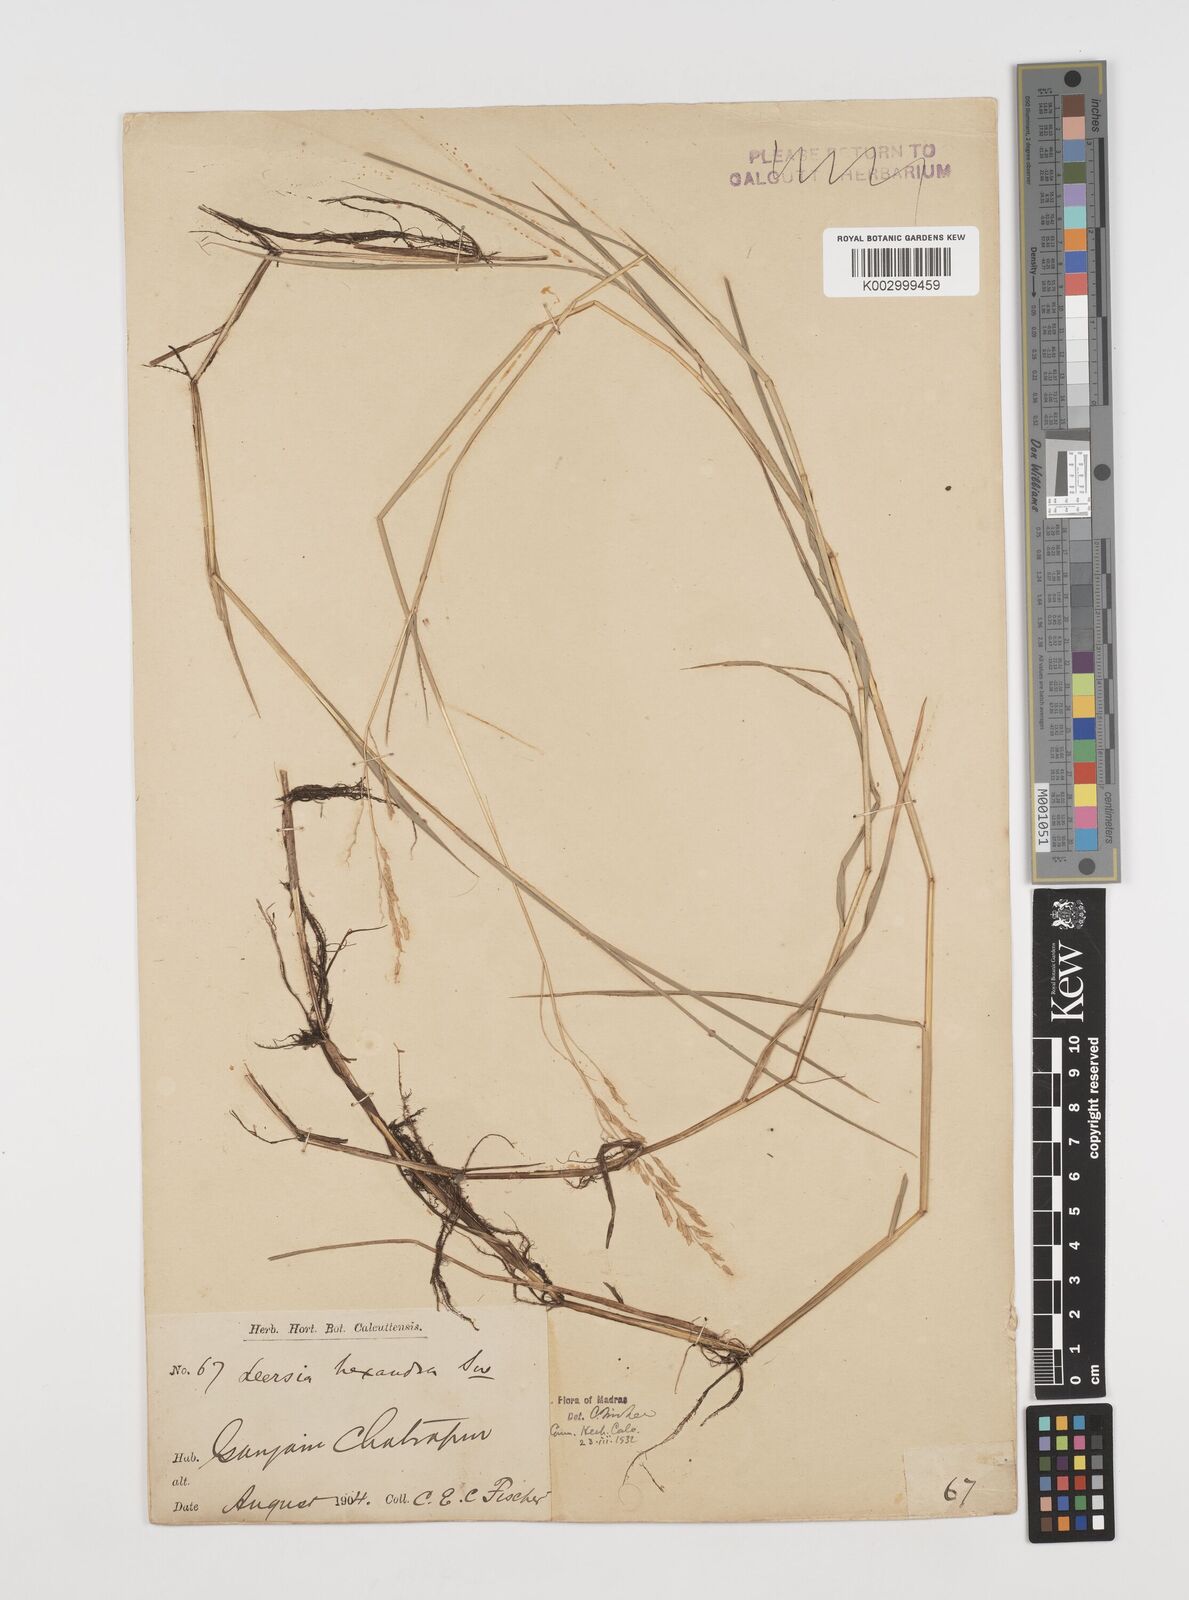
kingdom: Plantae
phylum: Tracheophyta
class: Liliopsida
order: Poales
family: Poaceae
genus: Leersia
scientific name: Leersia hexandra
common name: Southern cut grass
